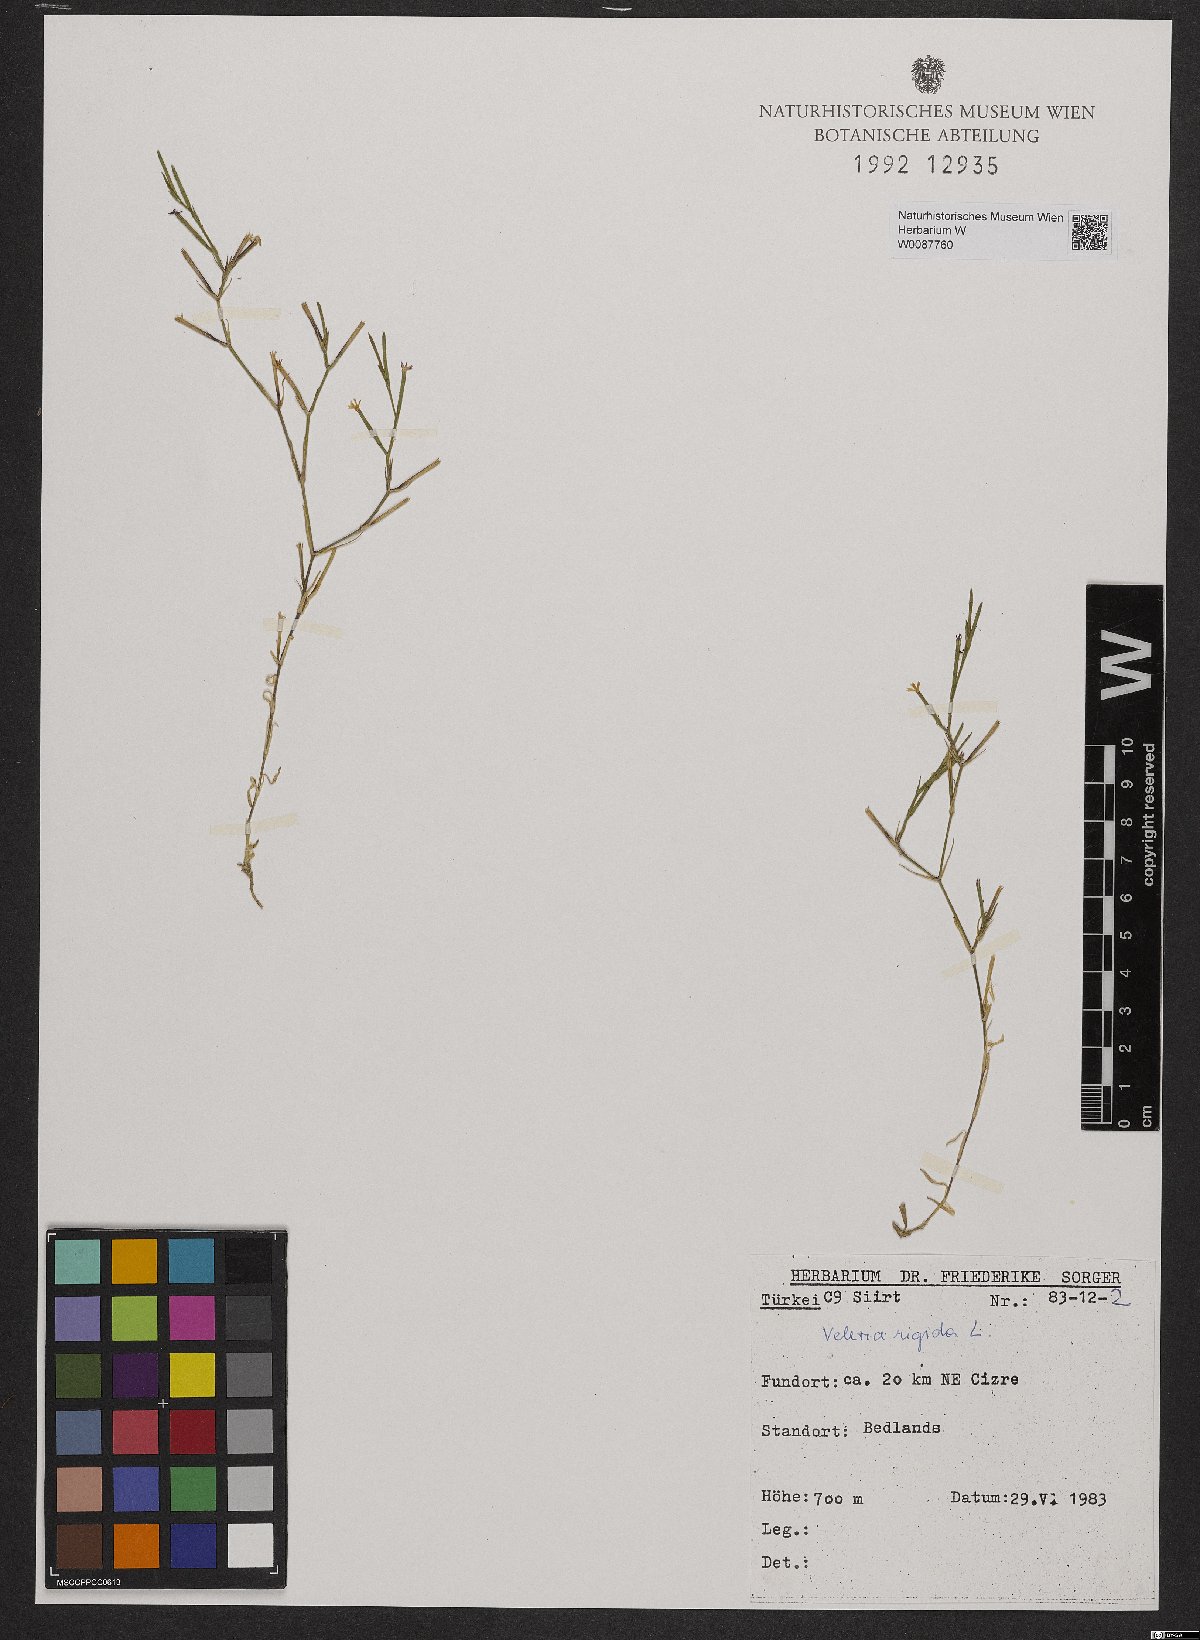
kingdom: Plantae
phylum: Tracheophyta
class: Magnoliopsida
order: Caryophyllales
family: Caryophyllaceae
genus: Dianthus
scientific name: Dianthus nudiflorus
